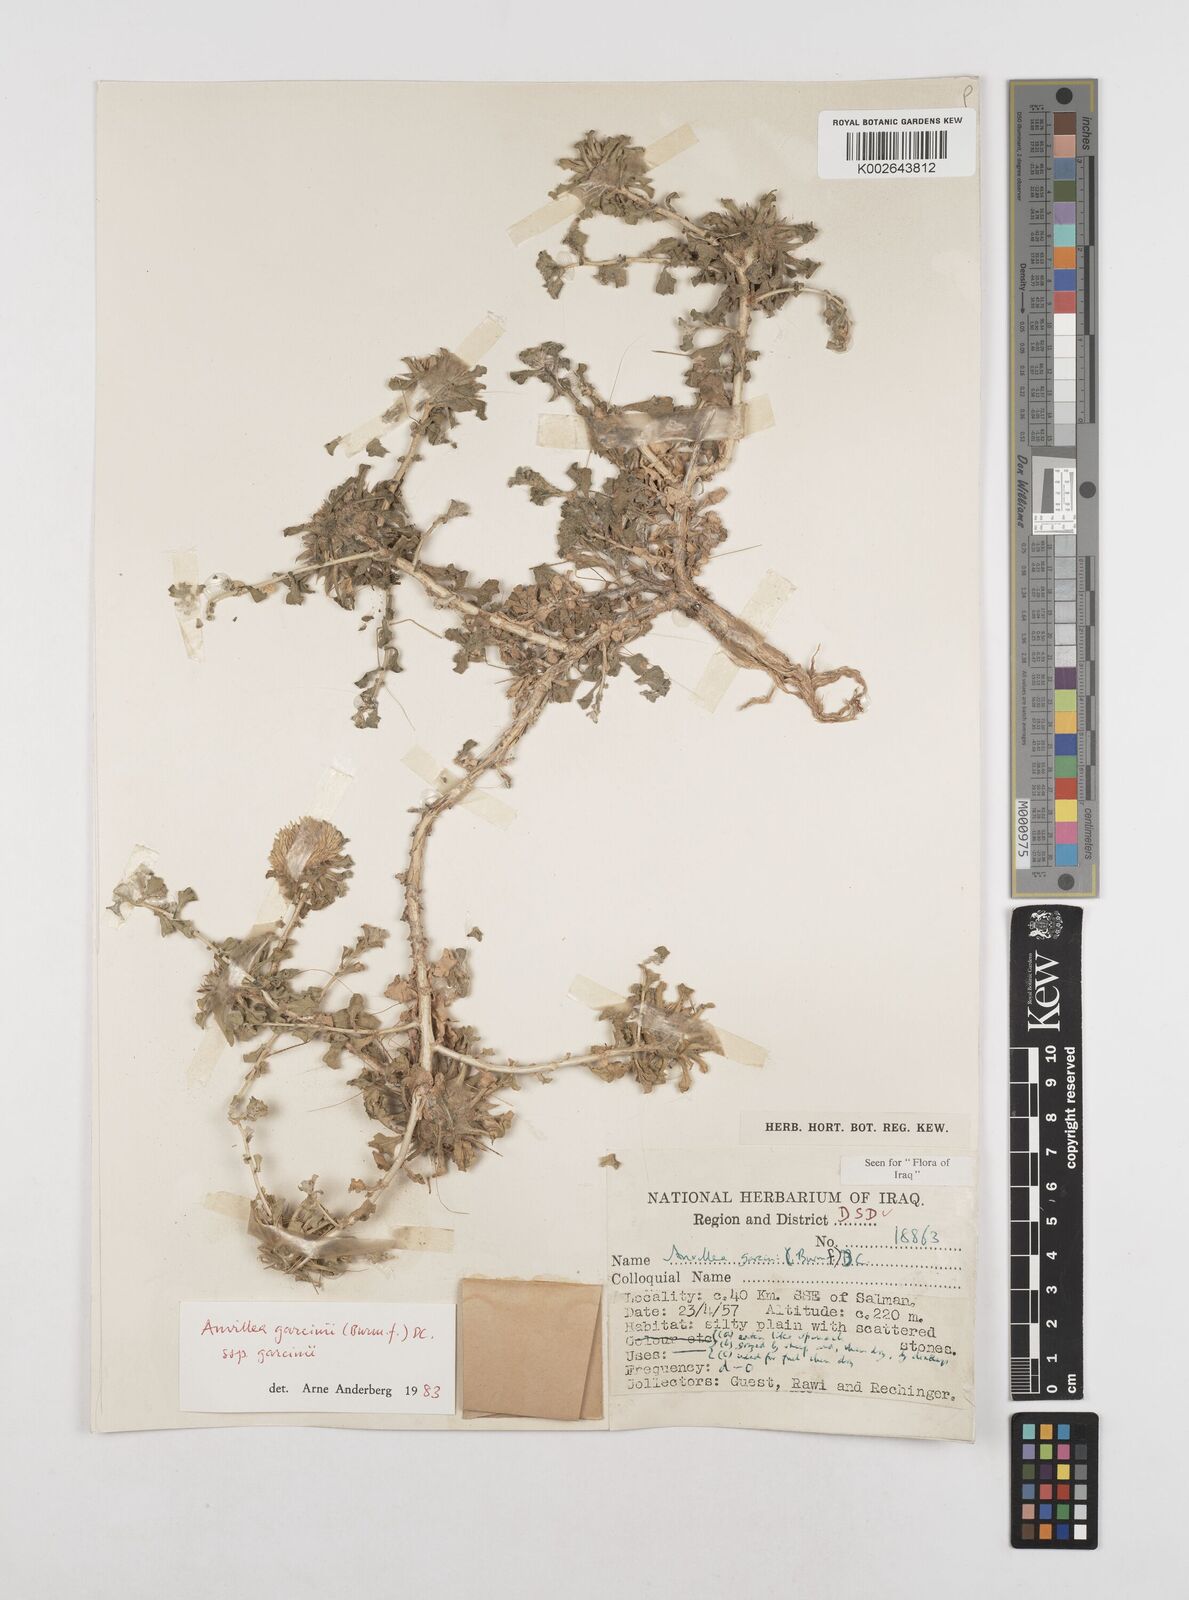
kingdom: Plantae
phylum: Tracheophyta
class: Magnoliopsida
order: Asterales
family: Asteraceae
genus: Anvillea
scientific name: Anvillea garcinii
